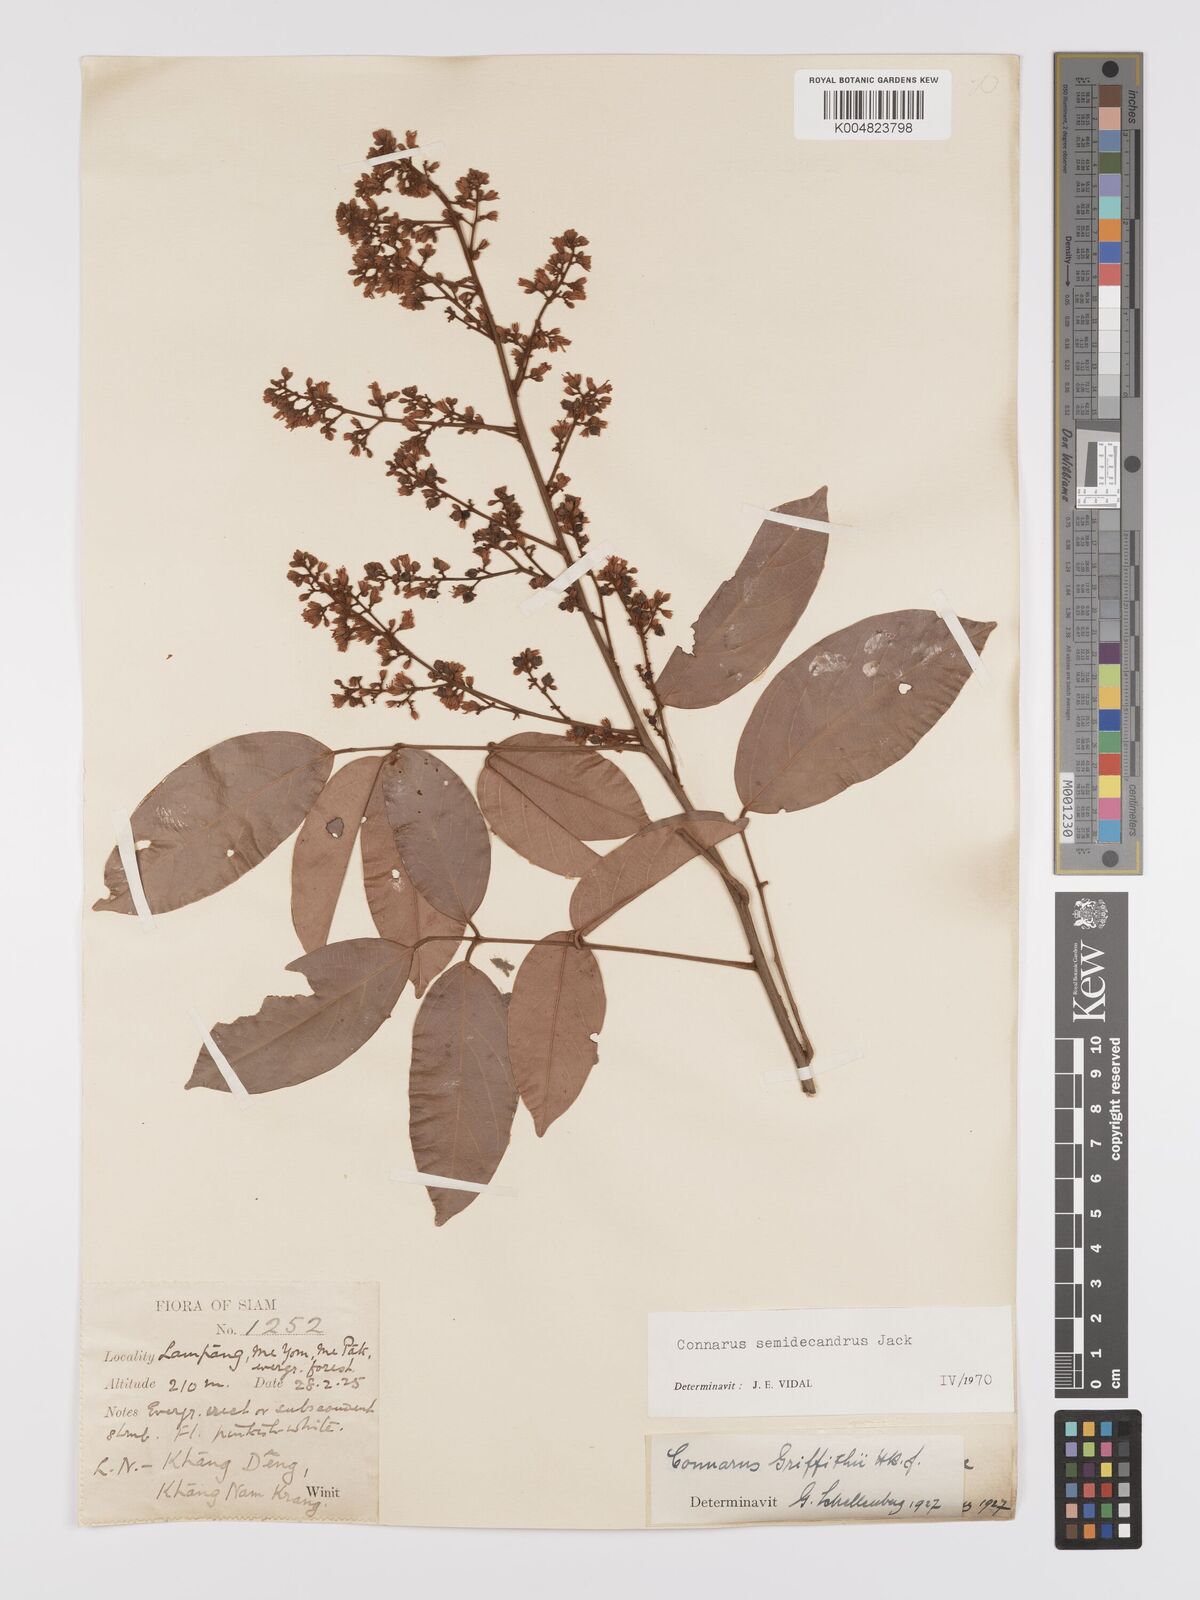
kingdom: Plantae
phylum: Tracheophyta
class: Magnoliopsida
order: Oxalidales
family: Connaraceae
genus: Connarus
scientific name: Connarus semidecandrus
